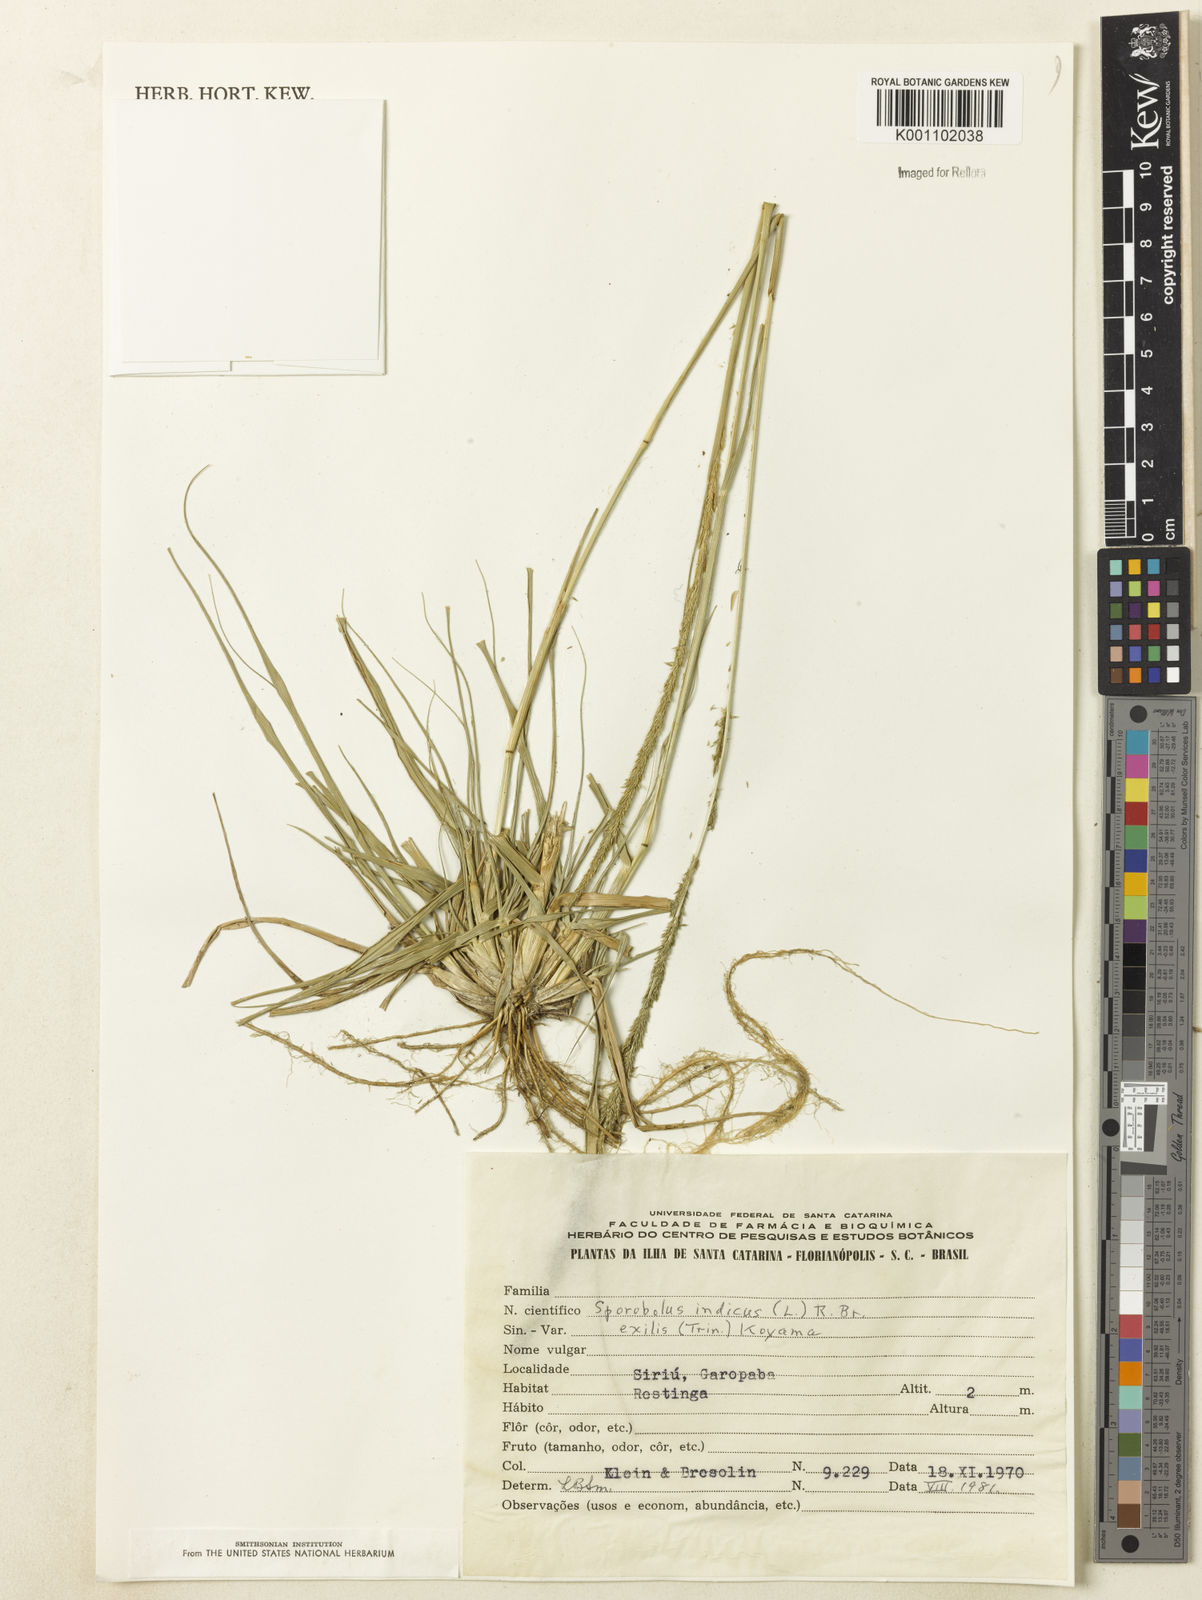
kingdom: Plantae
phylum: Tracheophyta
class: Liliopsida
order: Poales
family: Poaceae
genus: Sporobolus
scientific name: Sporobolus indicus
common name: Smut grass
